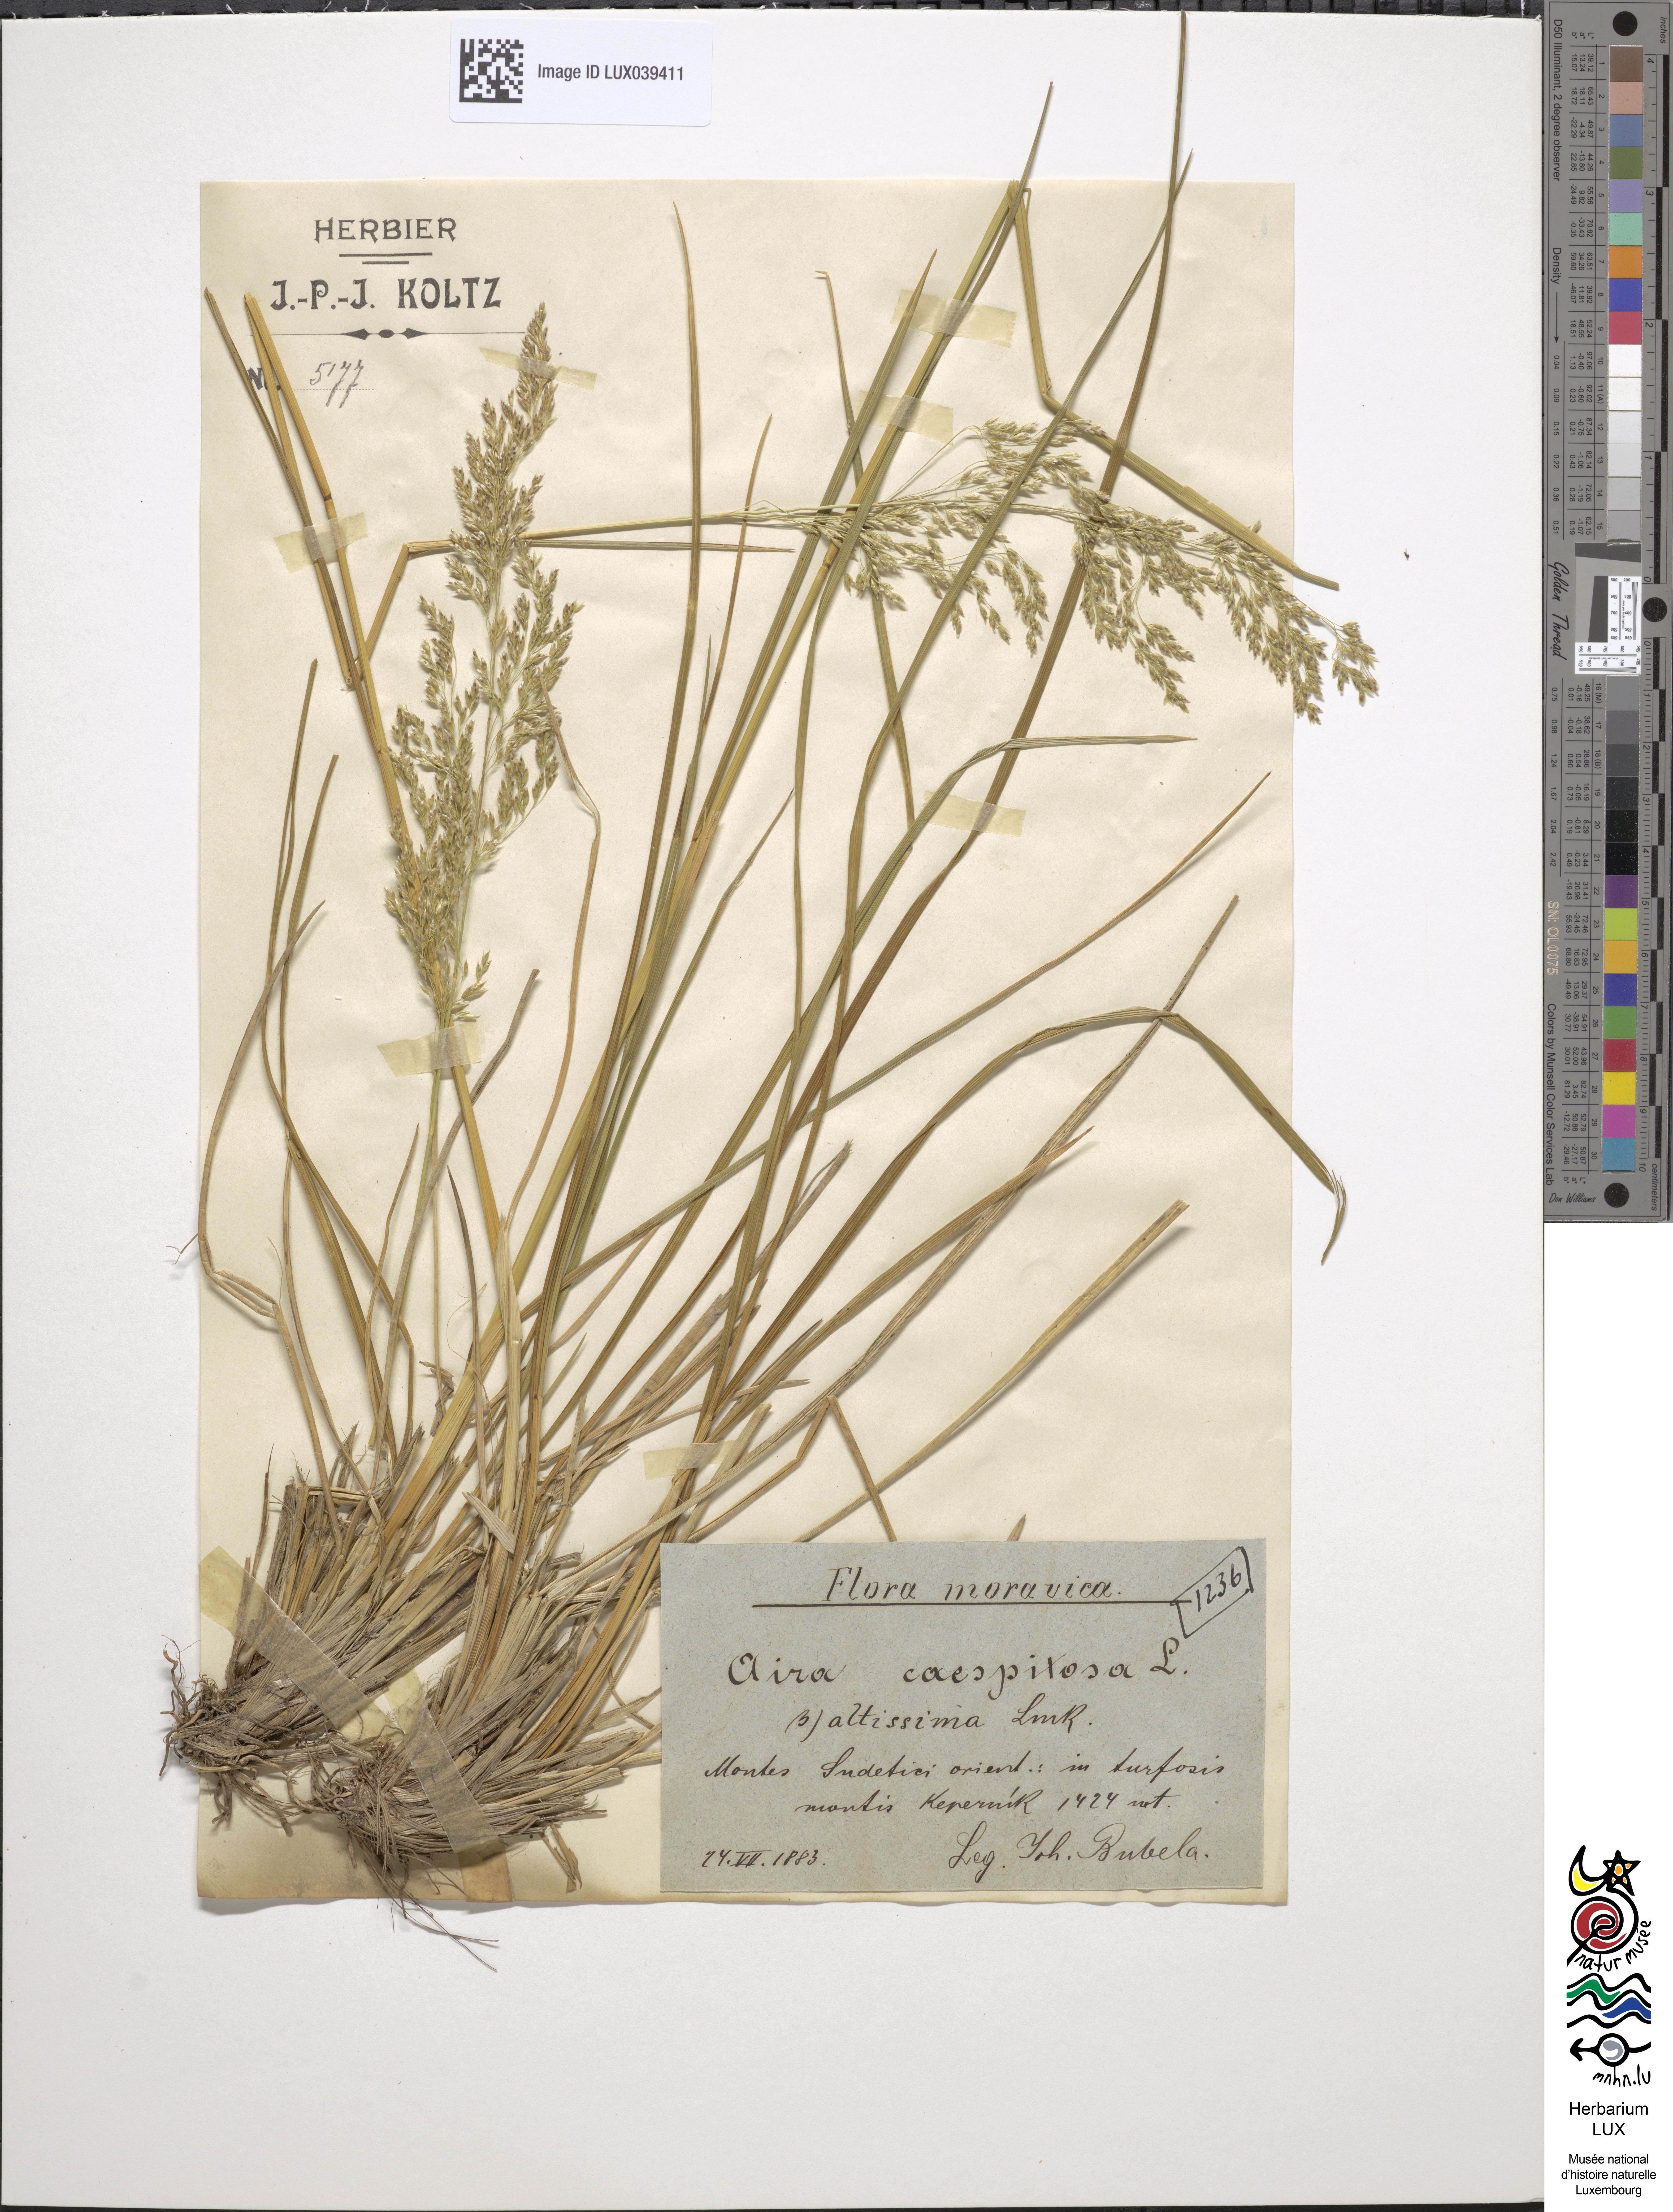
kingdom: Plantae
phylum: Tracheophyta
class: Liliopsida
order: Poales
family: Poaceae
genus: Deschampsia
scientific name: Deschampsia cespitosa
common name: Tufted hair-grass
